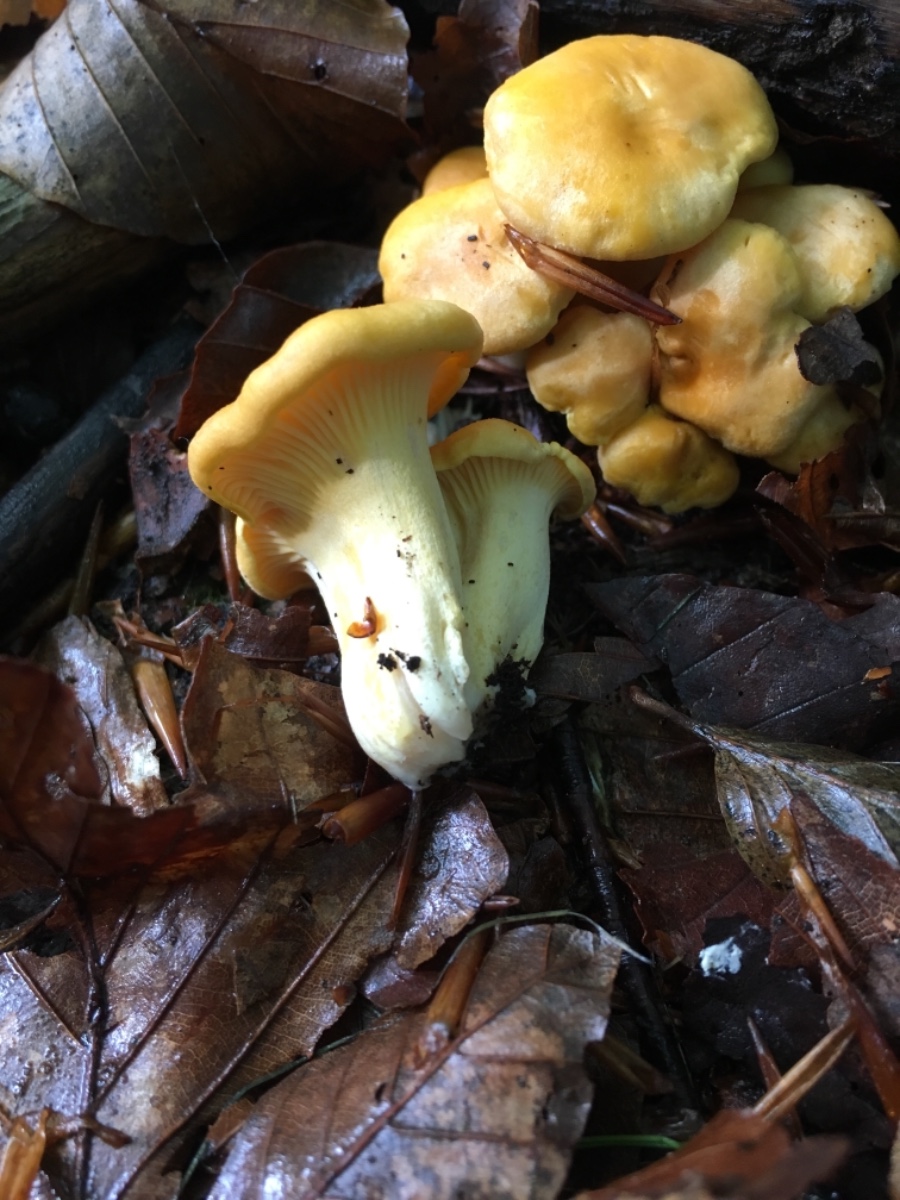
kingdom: Fungi
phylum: Basidiomycota
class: Agaricomycetes
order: Cantharellales
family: Hydnaceae
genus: Cantharellus
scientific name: Cantharellus cibarius
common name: almindelig kantarel
